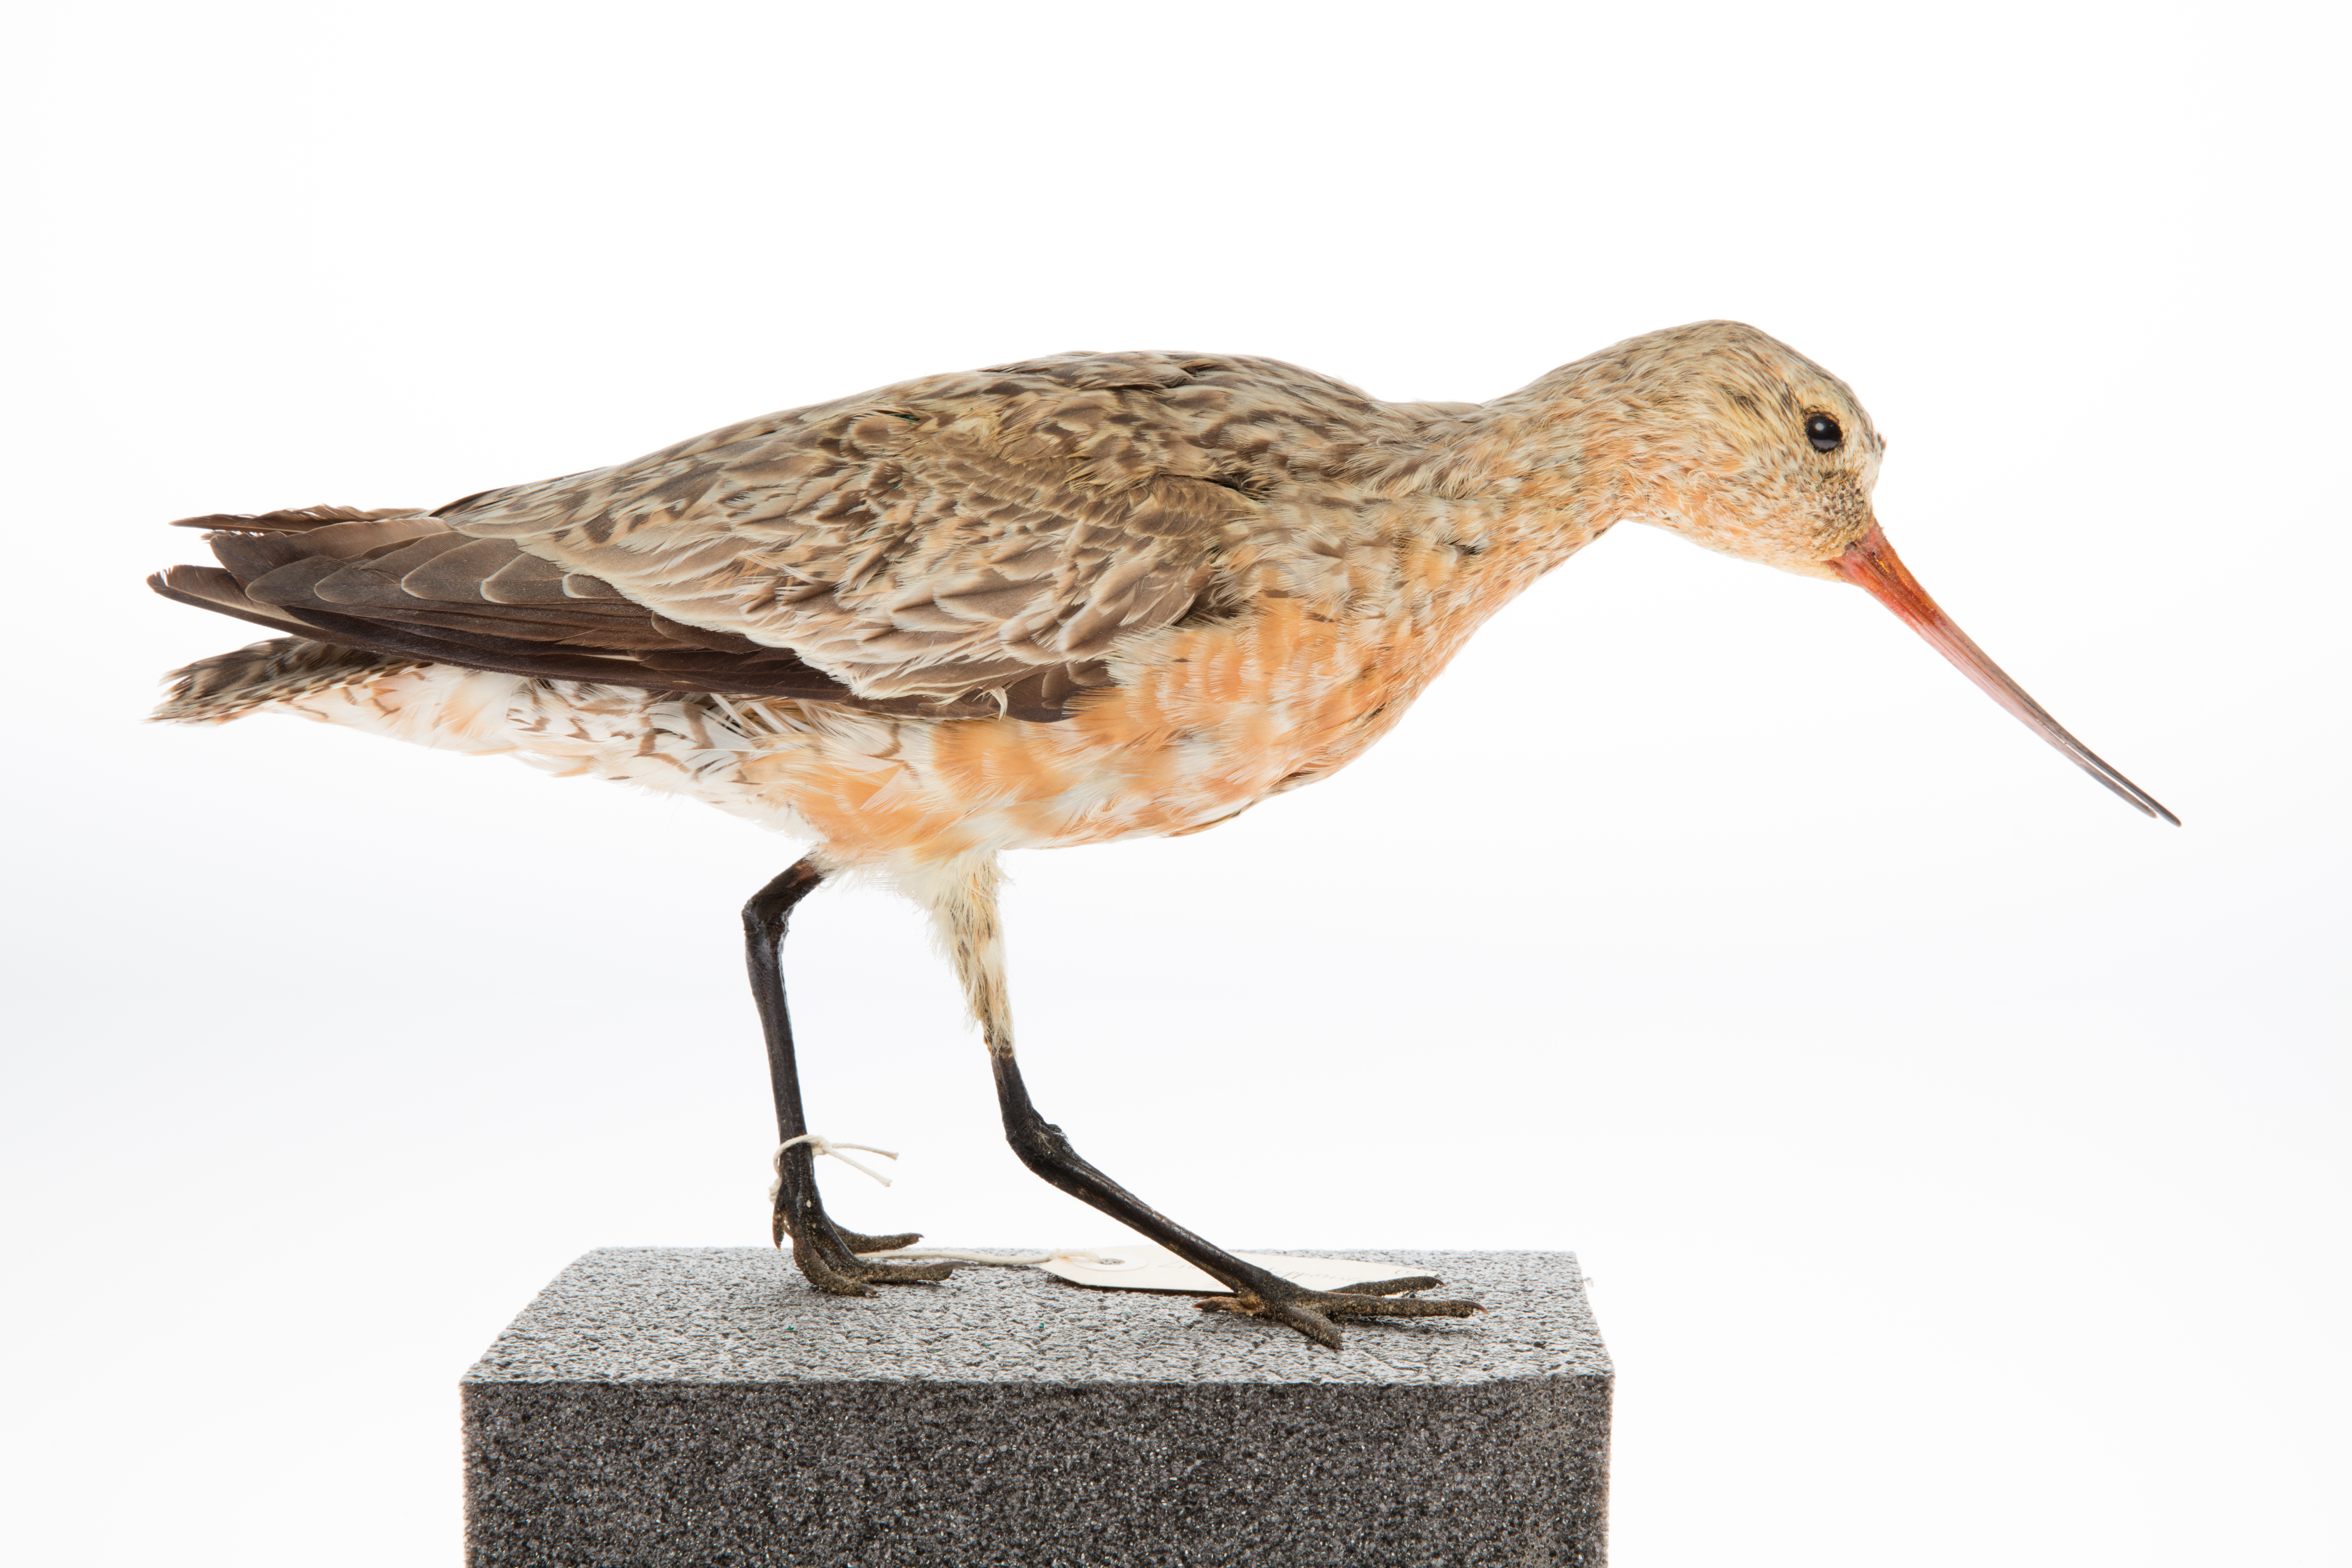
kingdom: Animalia
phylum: Chordata
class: Aves
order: Charadriiformes
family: Scolopacidae
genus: Limosa
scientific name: Limosa lapponica
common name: Bar-tailed godwit
